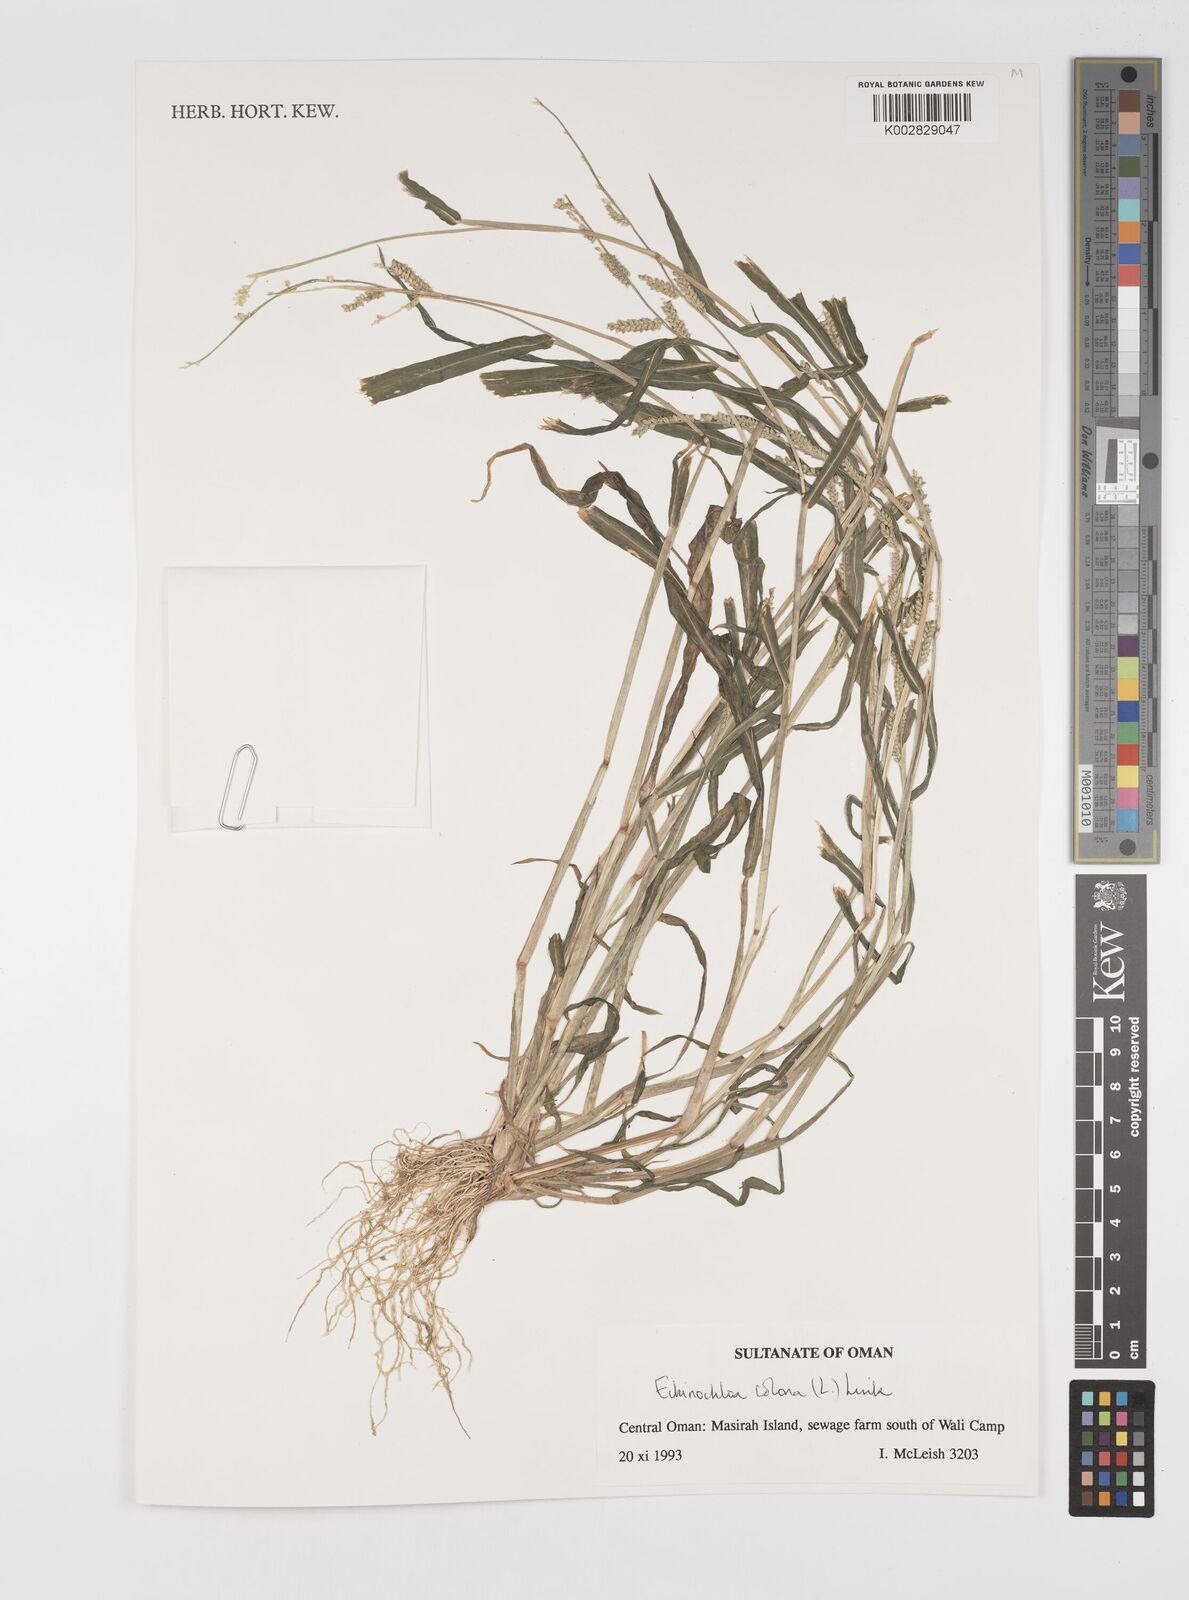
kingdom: Plantae
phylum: Tracheophyta
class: Liliopsida
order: Poales
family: Poaceae
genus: Echinochloa
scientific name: Echinochloa colonum
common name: Jungle rice
